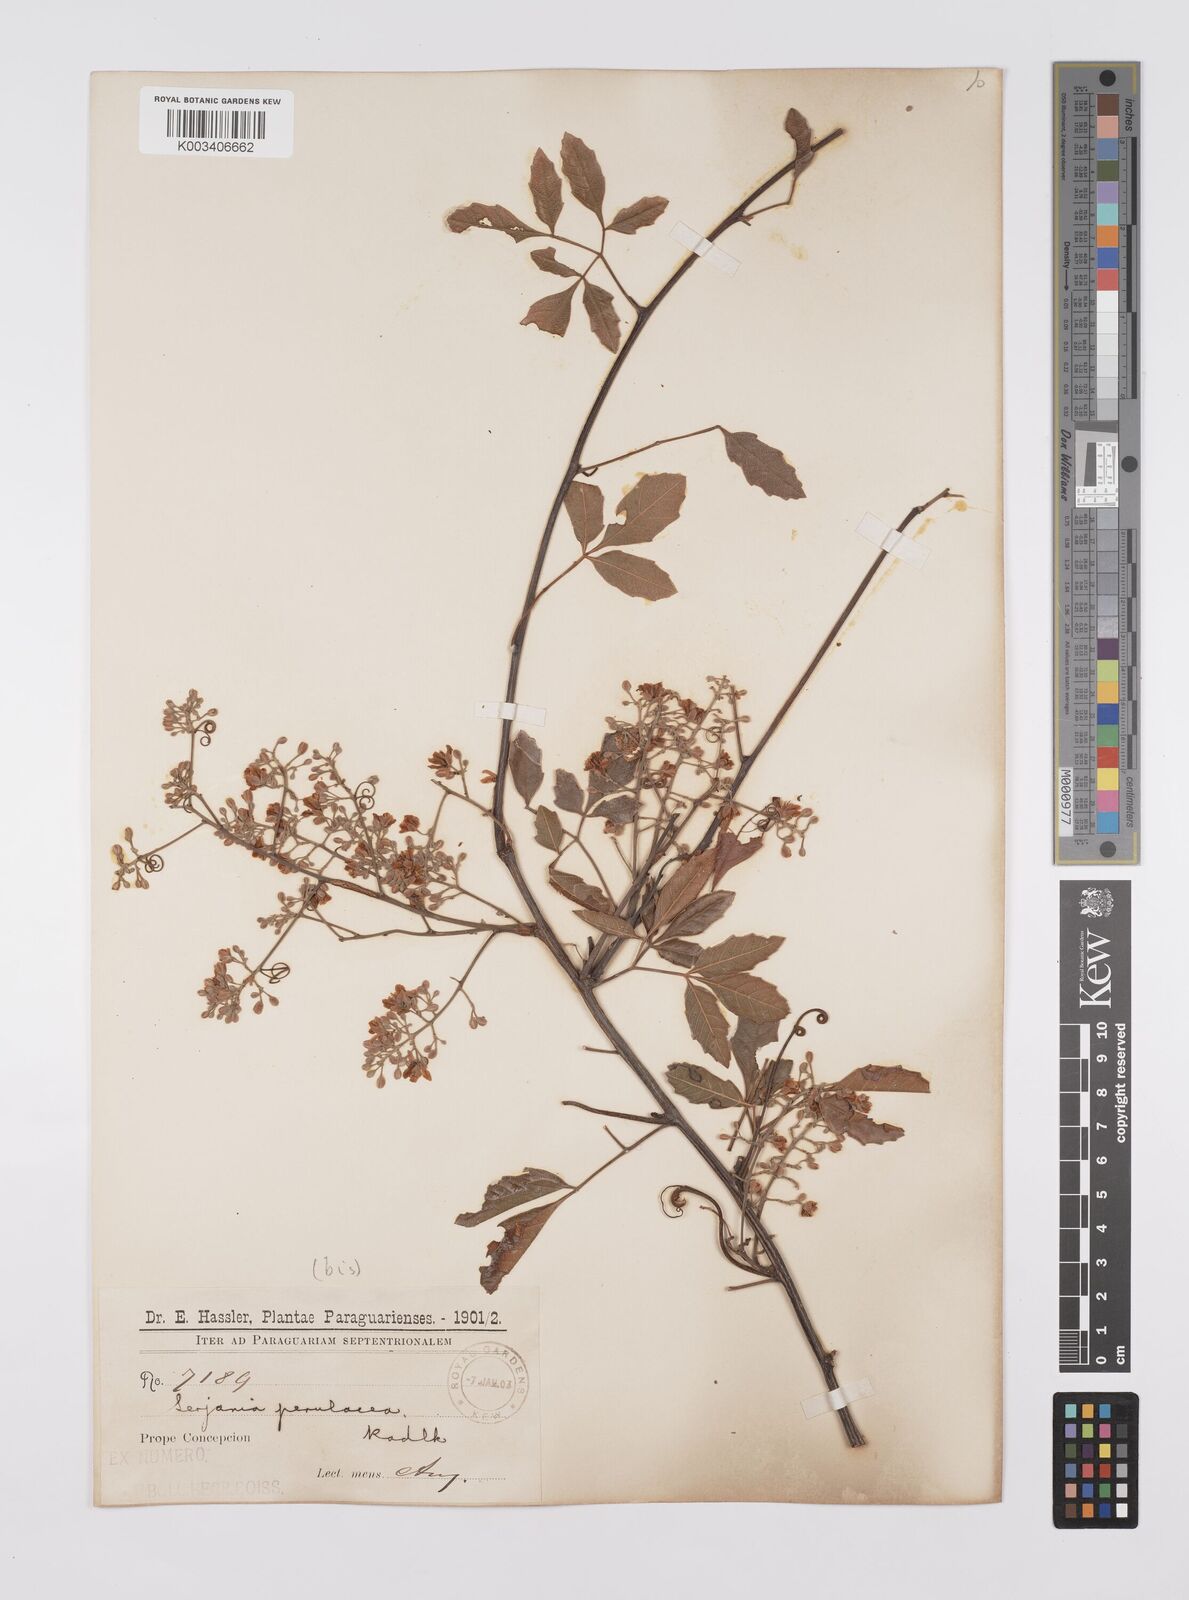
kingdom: Plantae
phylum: Tracheophyta
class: Magnoliopsida
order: Sapindales
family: Sapindaceae
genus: Serjania
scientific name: Serjania perulacea
